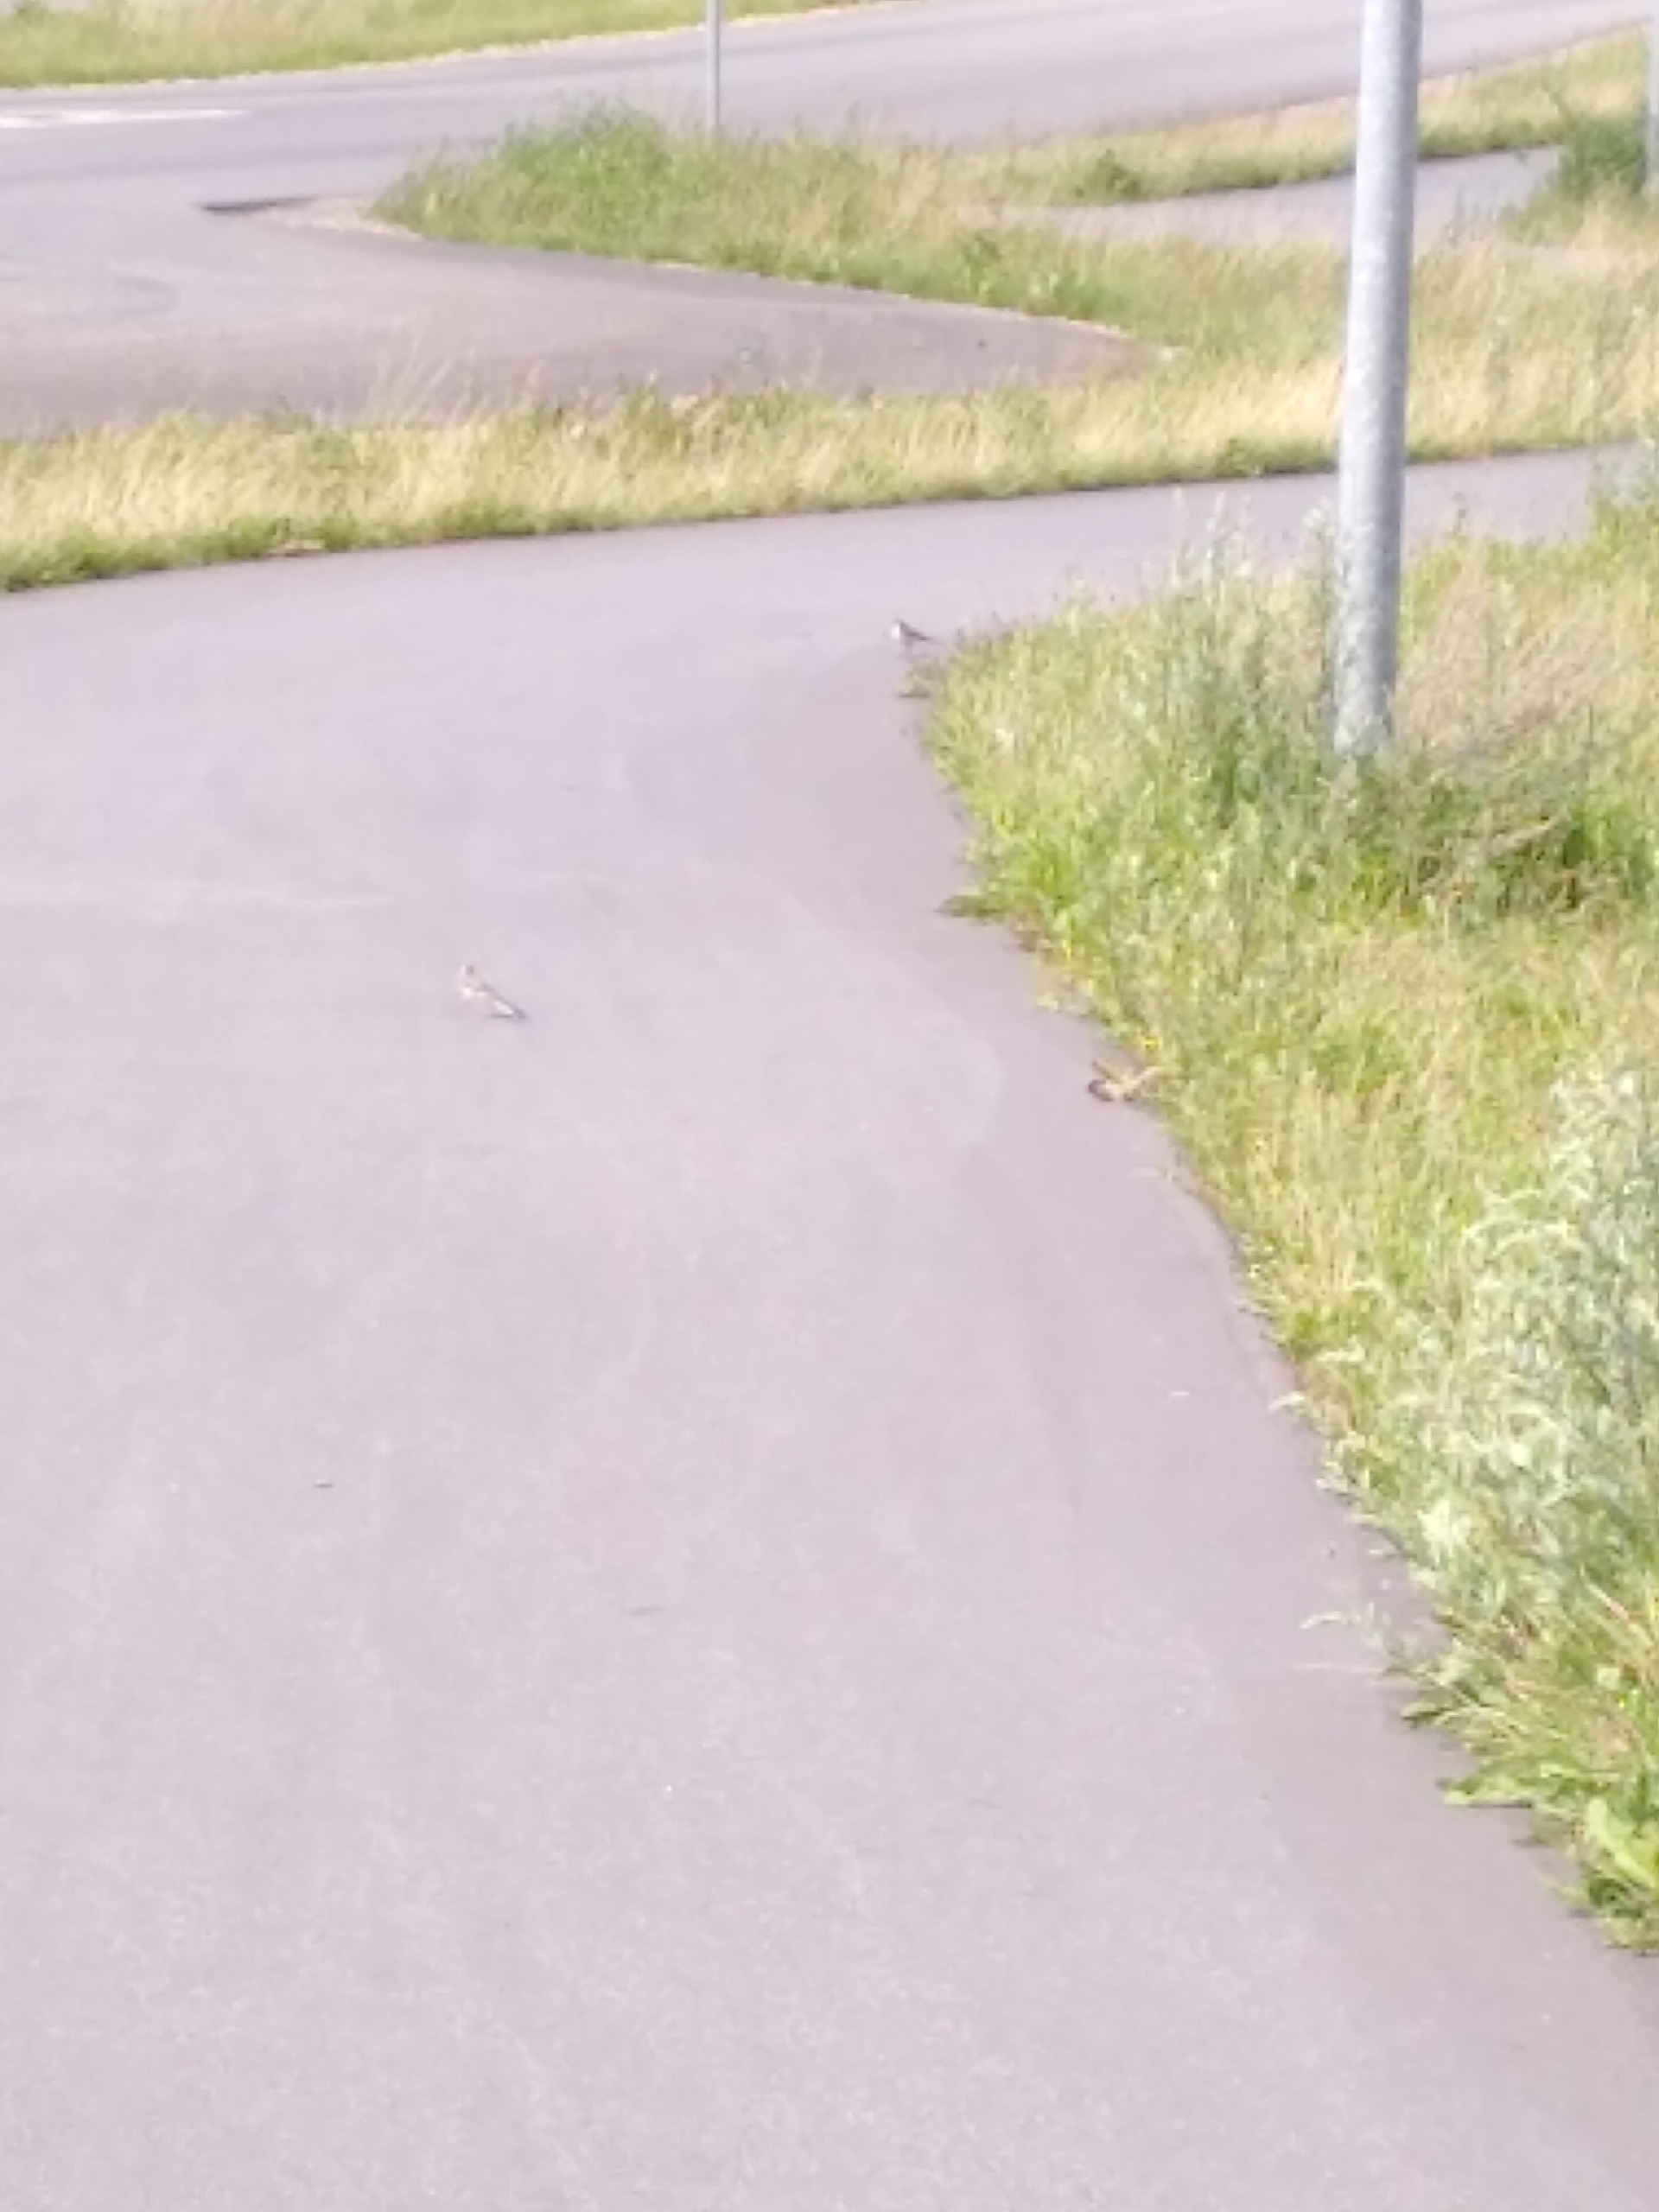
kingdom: Animalia
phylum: Chordata
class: Aves
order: Passeriformes
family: Motacillidae
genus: Motacilla
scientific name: Motacilla alba
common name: Hvid vipstjert
